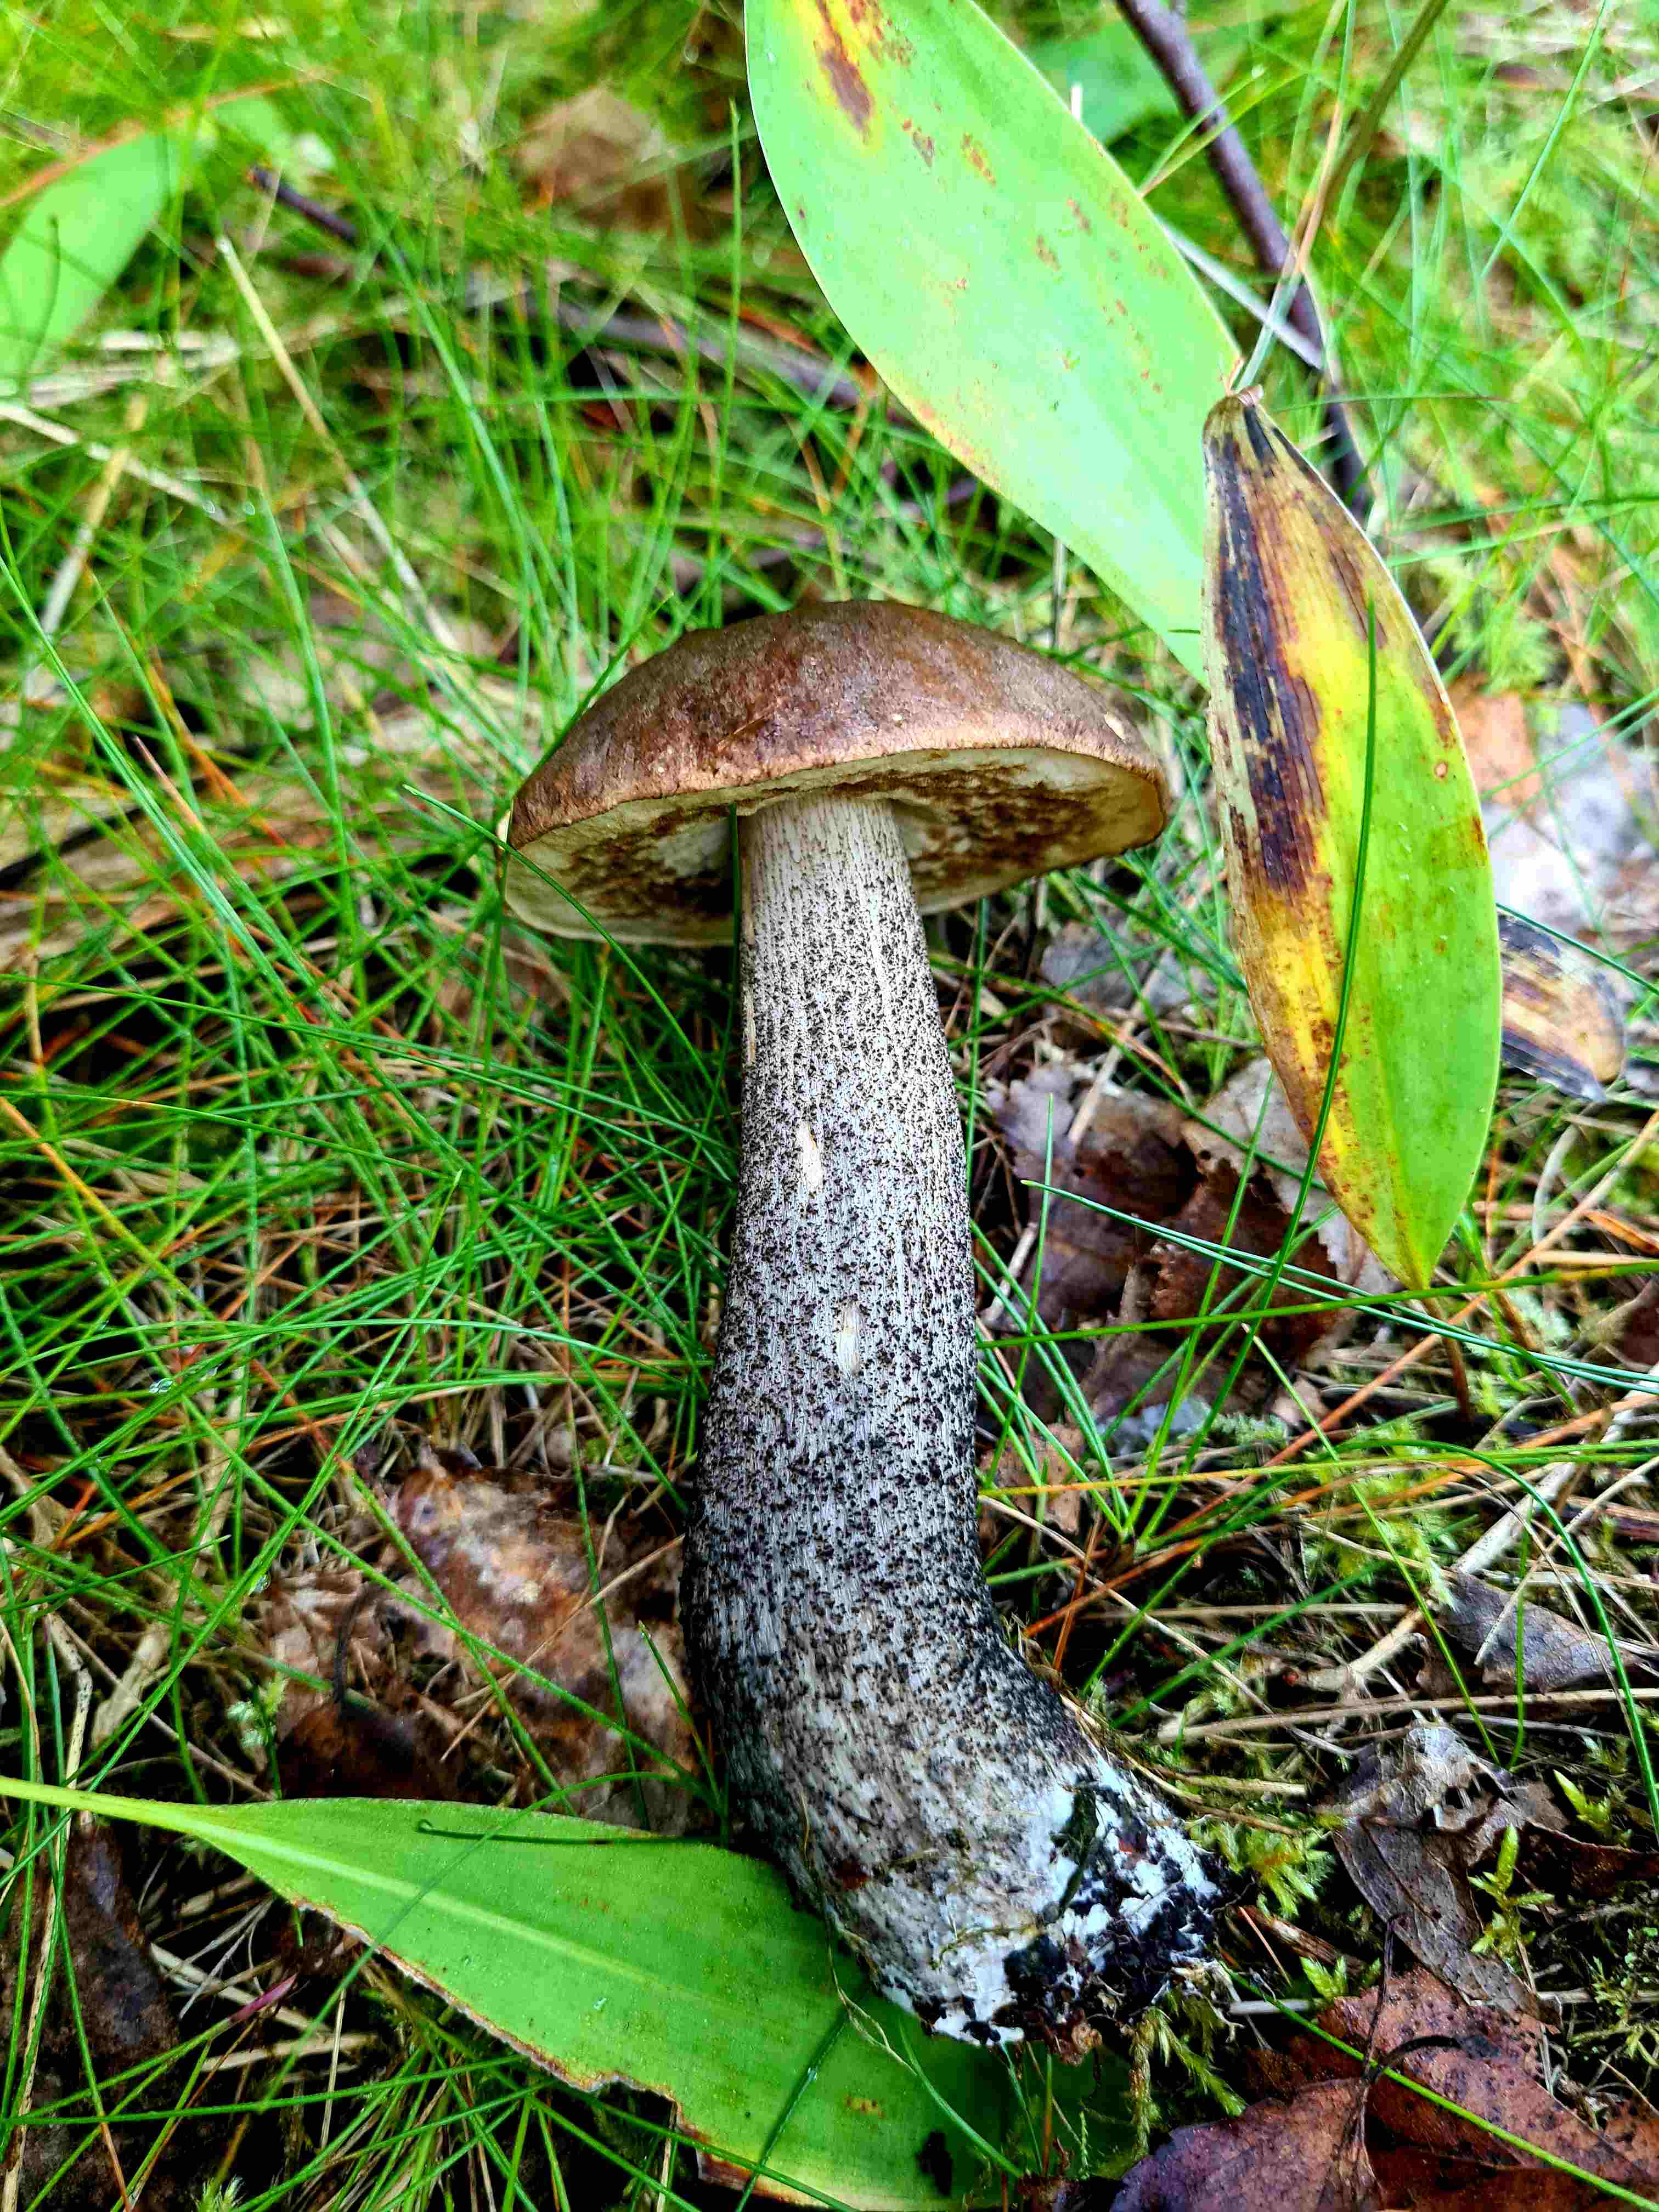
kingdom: Fungi
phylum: Basidiomycota
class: Agaricomycetes
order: Boletales
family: Boletaceae
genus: Leccinum
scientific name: Leccinum scabrum
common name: brun skælrørhat
